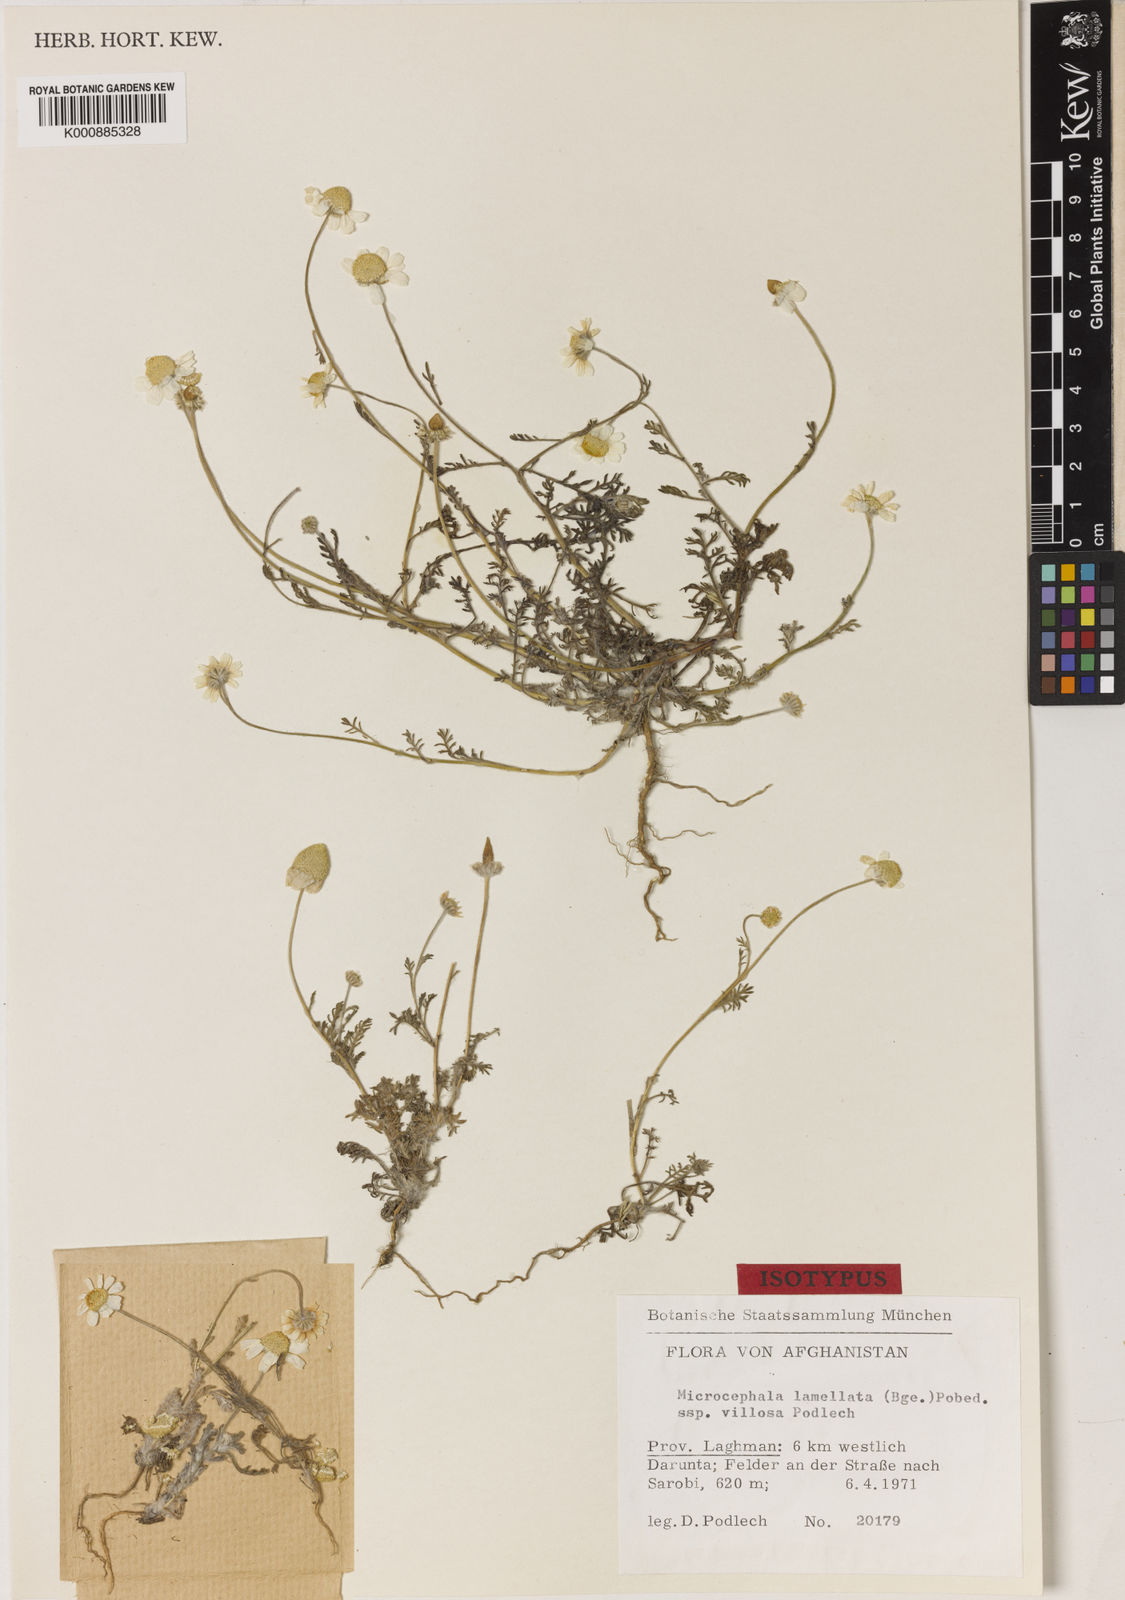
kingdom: Plantae
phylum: Tracheophyta
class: Magnoliopsida
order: Asterales
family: Asteraceae
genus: Microcephala
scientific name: Microcephala lamellata
